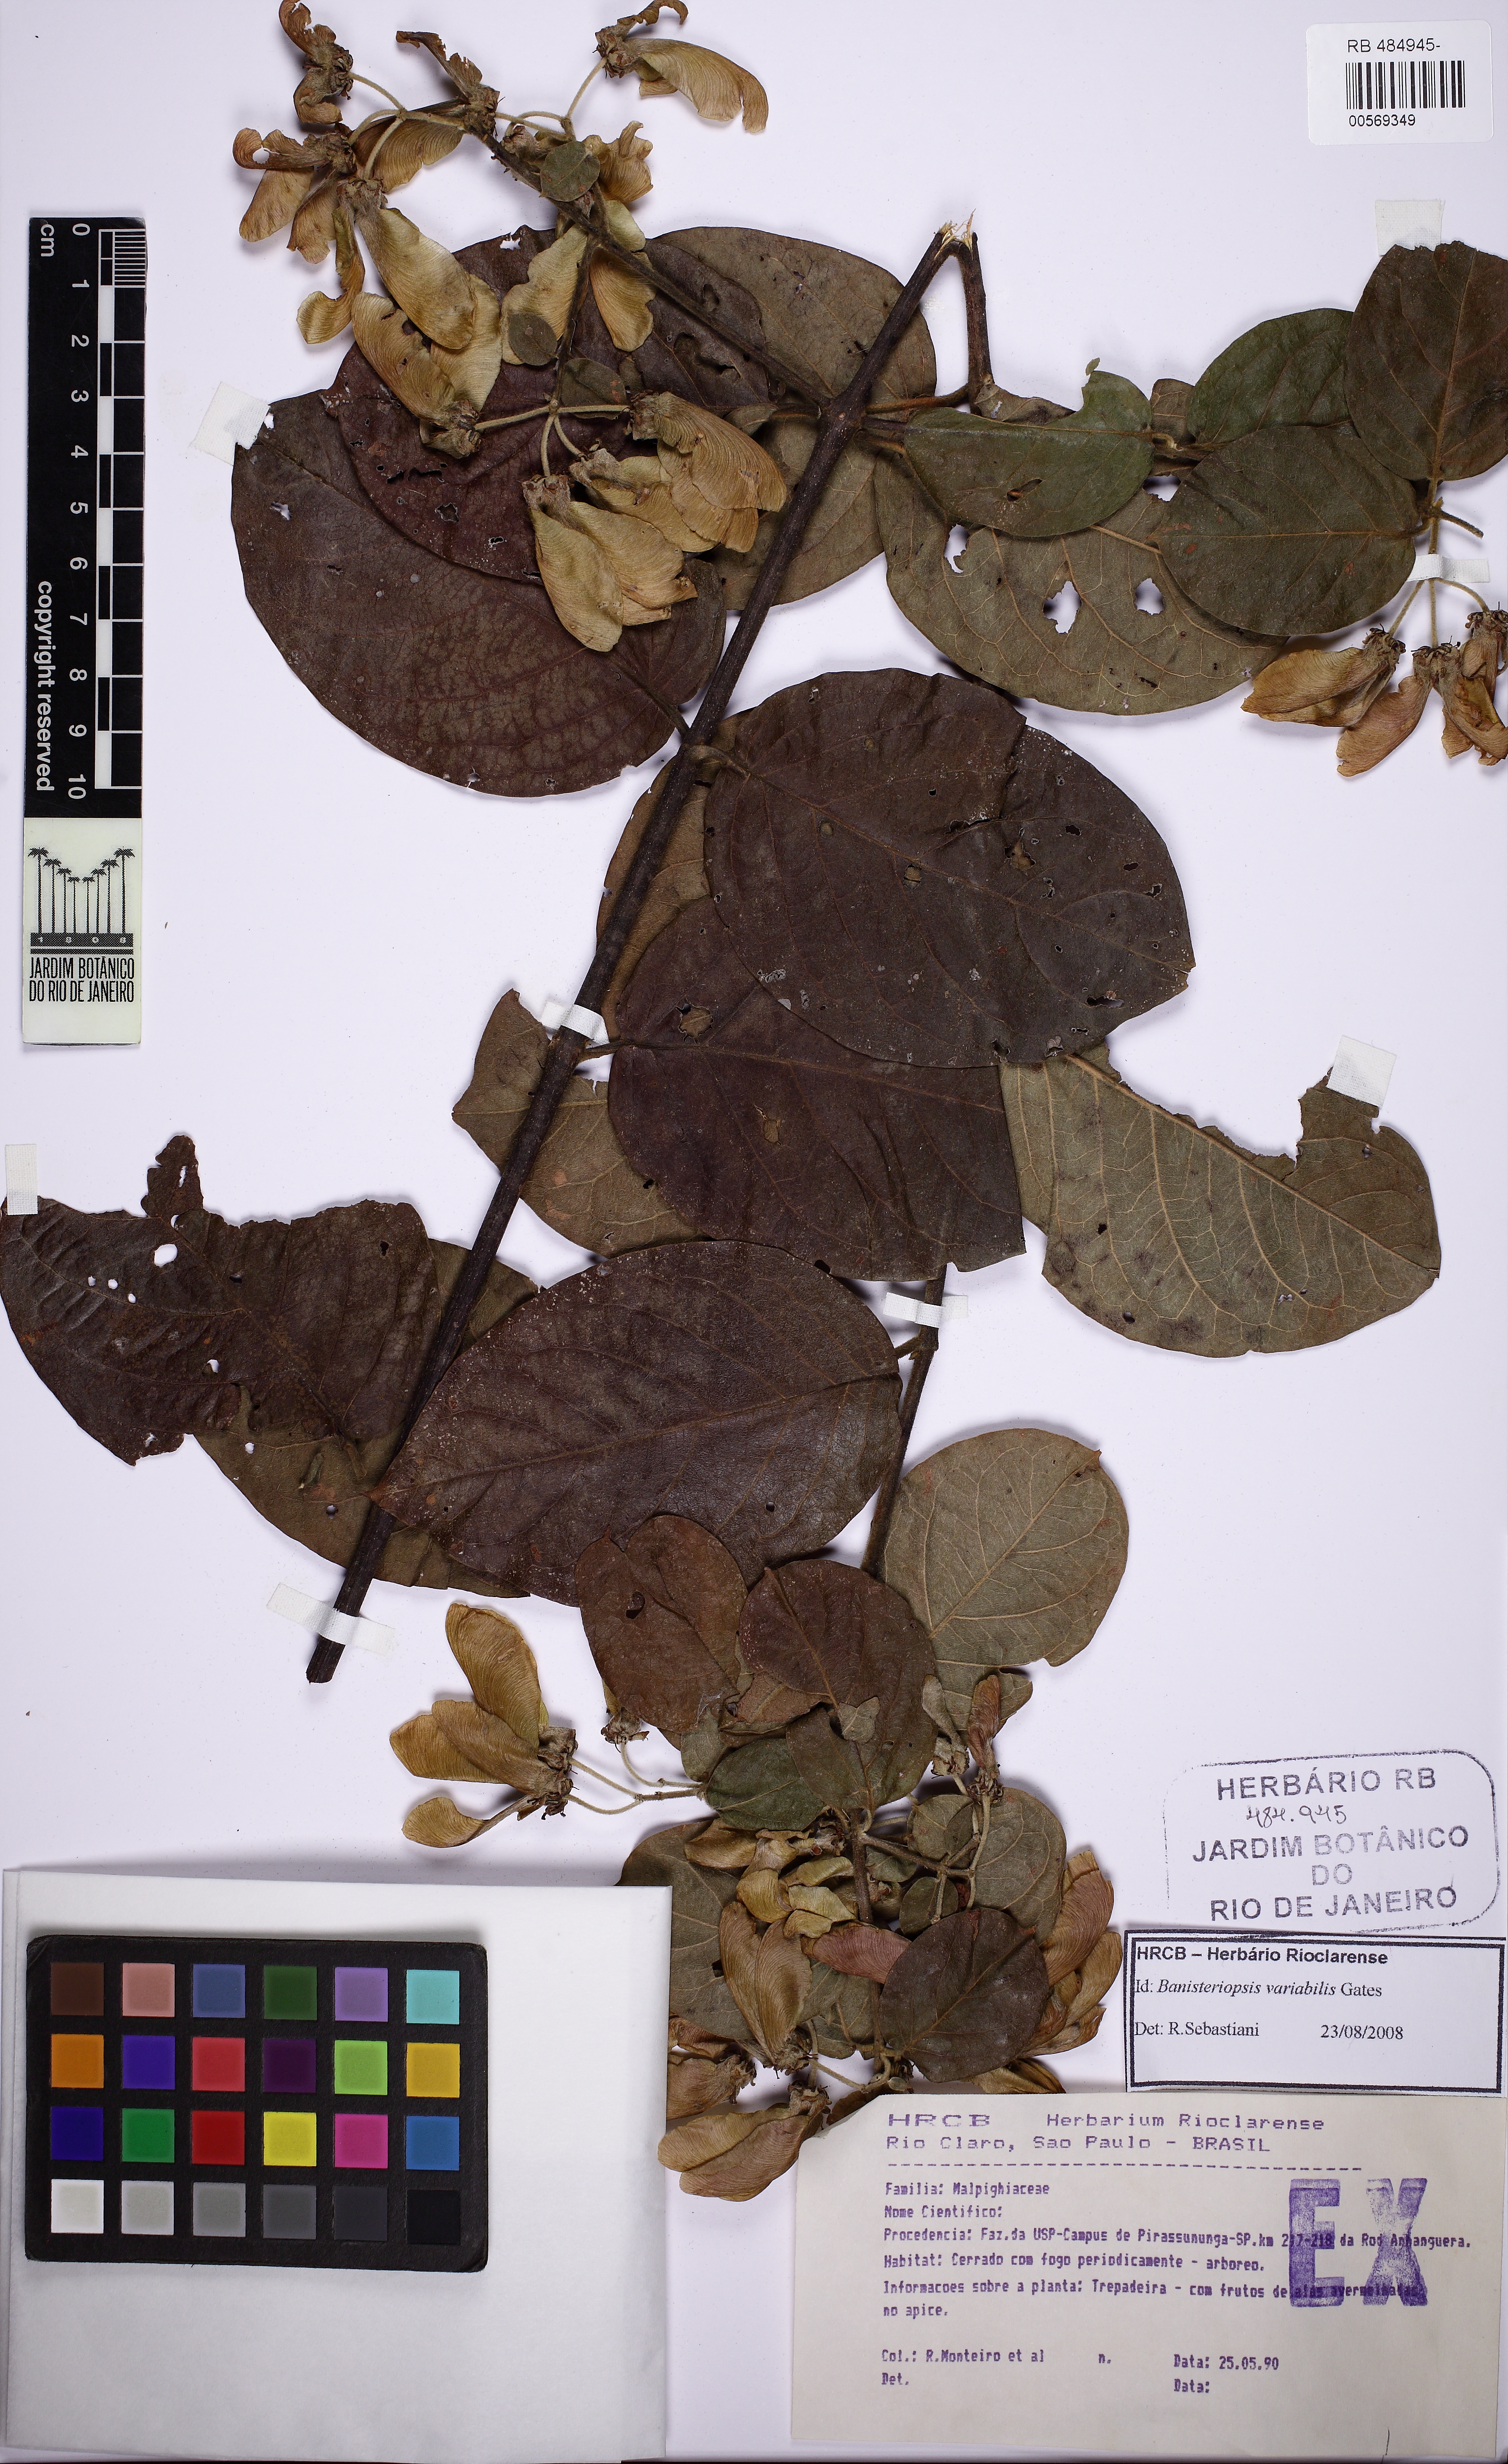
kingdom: Plantae
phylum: Tracheophyta
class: Magnoliopsida
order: Malpighiales
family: Malpighiaceae
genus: Banisteriopsis
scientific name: Banisteriopsis variabilis
